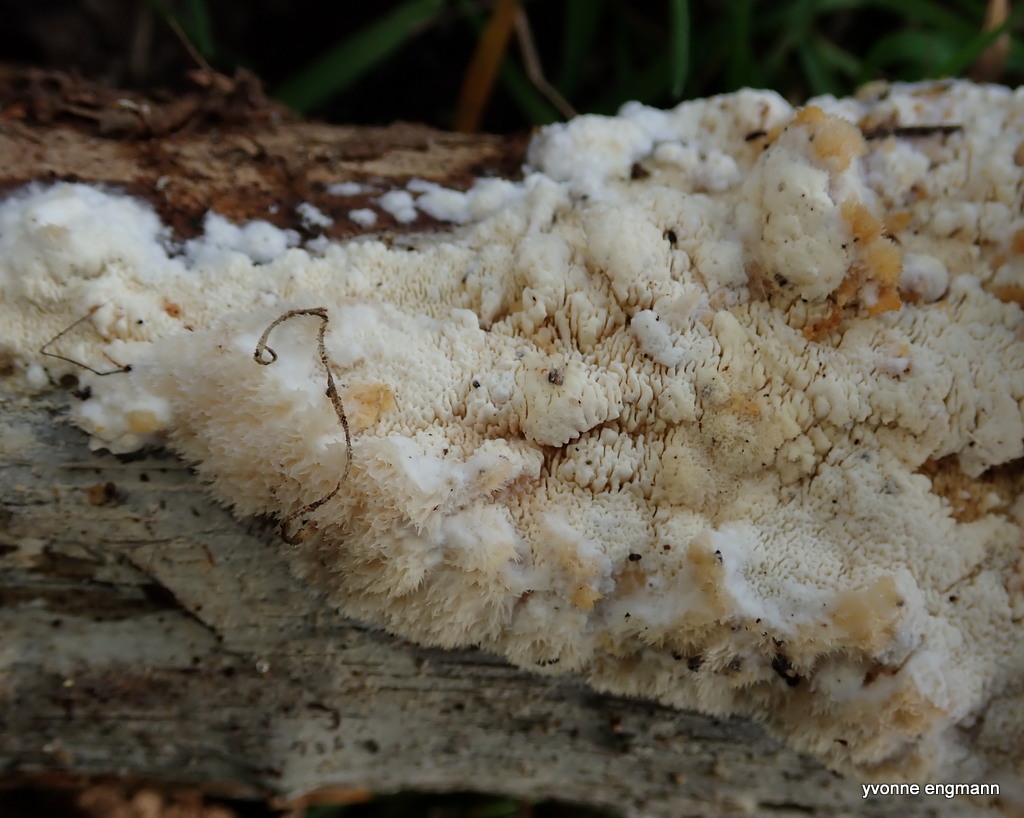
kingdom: Fungi
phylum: Basidiomycota
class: Agaricomycetes
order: Hymenochaetales
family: Schizoporaceae
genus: Xylodon
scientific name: Xylodon
